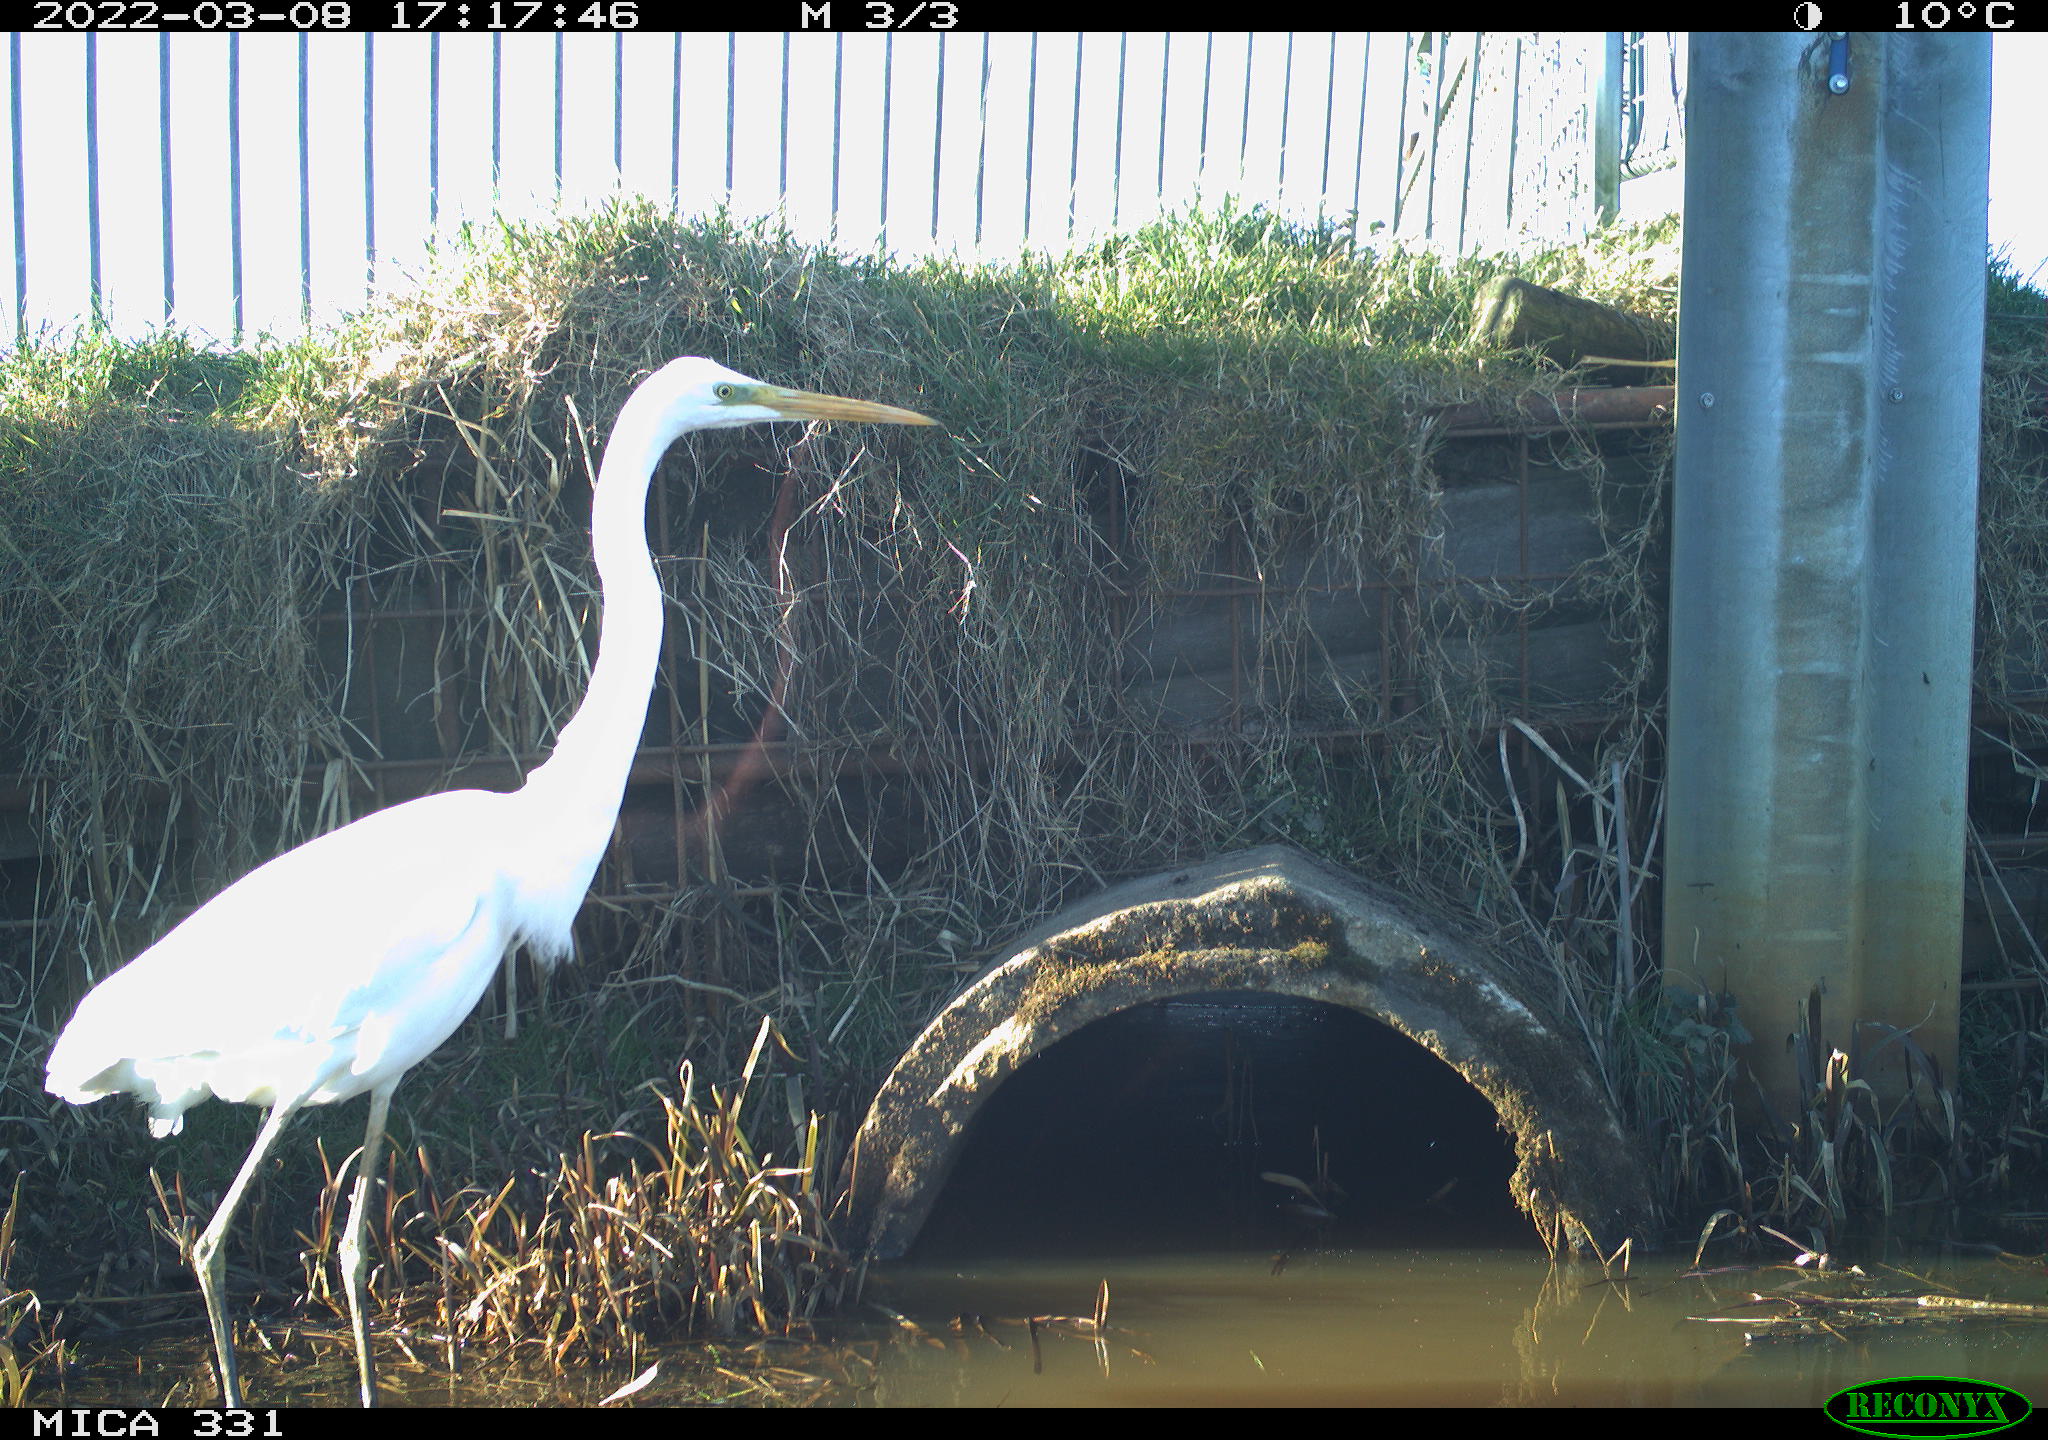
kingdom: Animalia
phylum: Chordata
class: Aves
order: Pelecaniformes
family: Ardeidae
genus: Ardea
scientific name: Ardea alba
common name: Great egret
